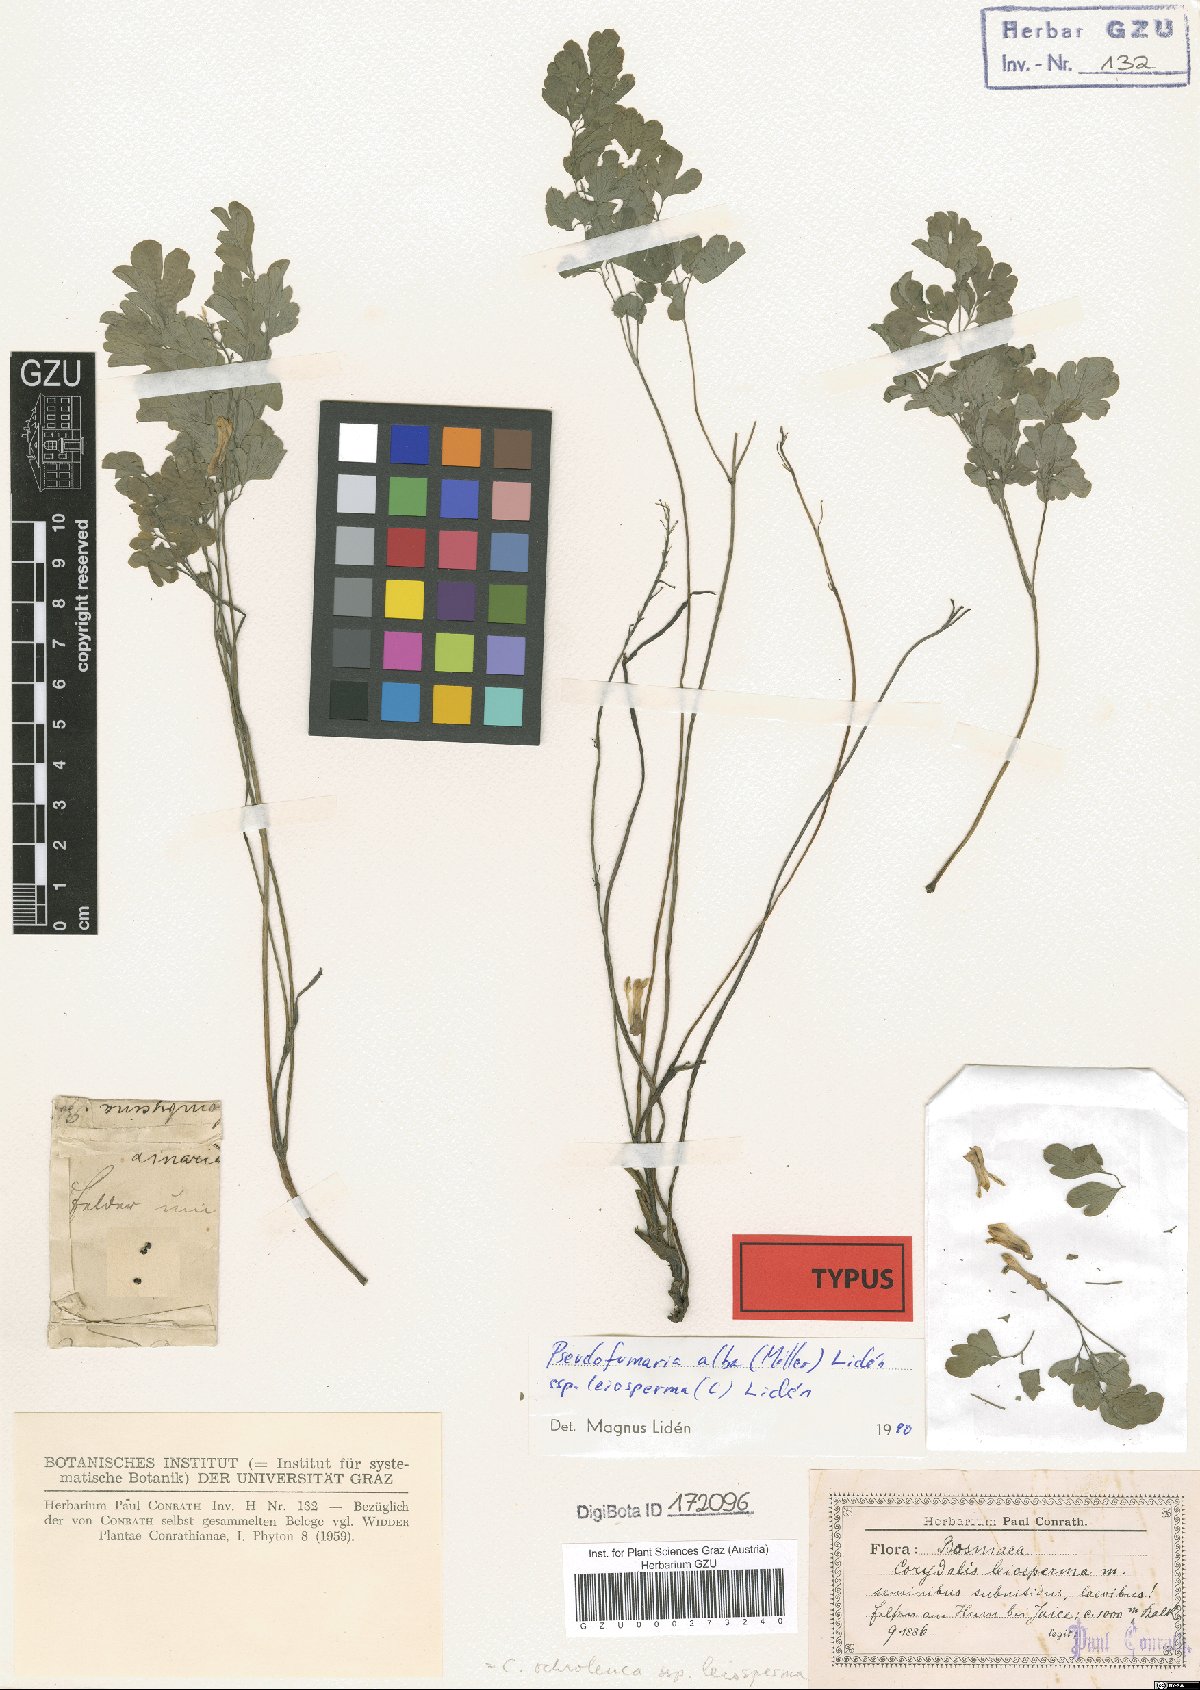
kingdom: Plantae
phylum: Tracheophyta
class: Magnoliopsida
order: Ranunculales
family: Papaveraceae
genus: Pseudofumaria
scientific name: Pseudofumaria alba
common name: Pale corydalis
